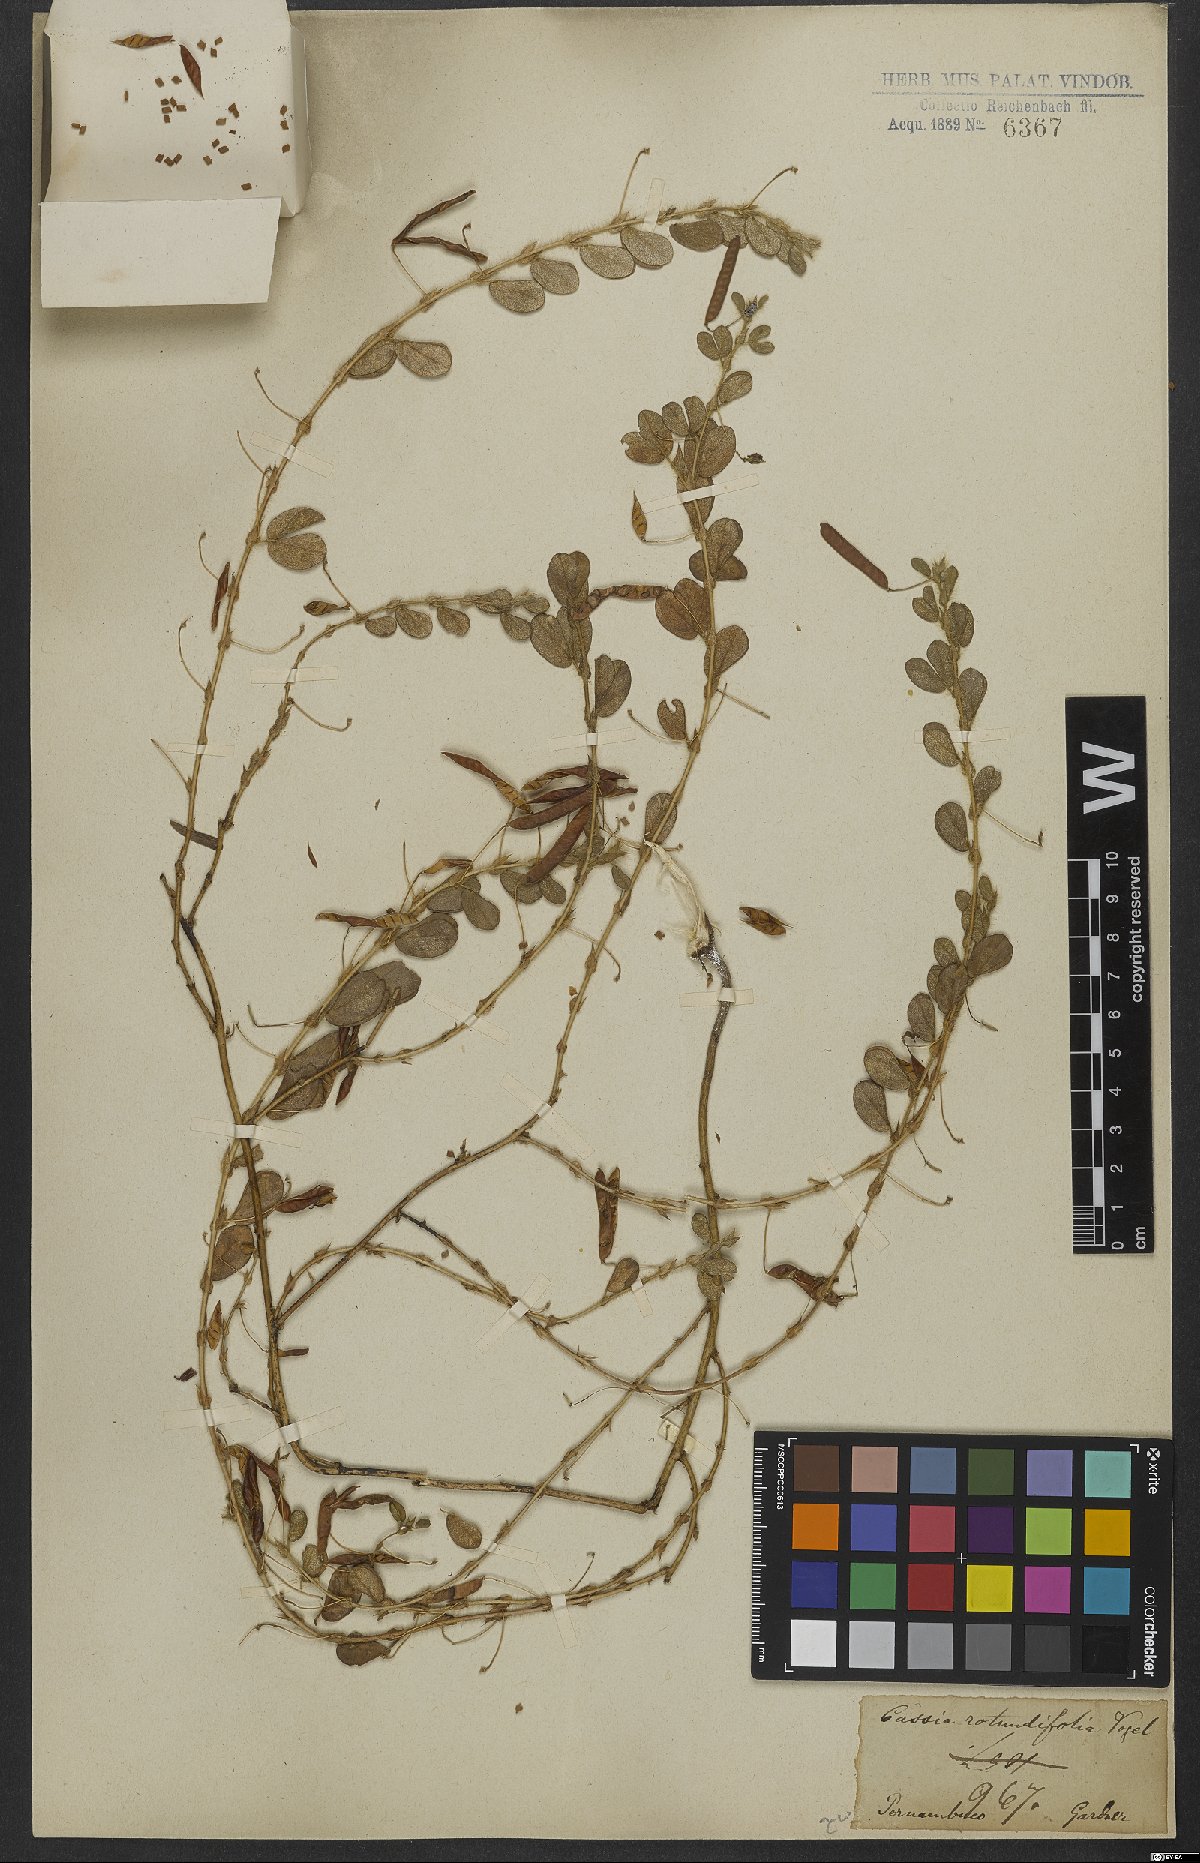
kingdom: Plantae
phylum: Tracheophyta
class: Magnoliopsida
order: Fabales
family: Fabaceae
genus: Chamaecrista
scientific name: Chamaecrista rotundifolia
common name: Round-leaf cassia
